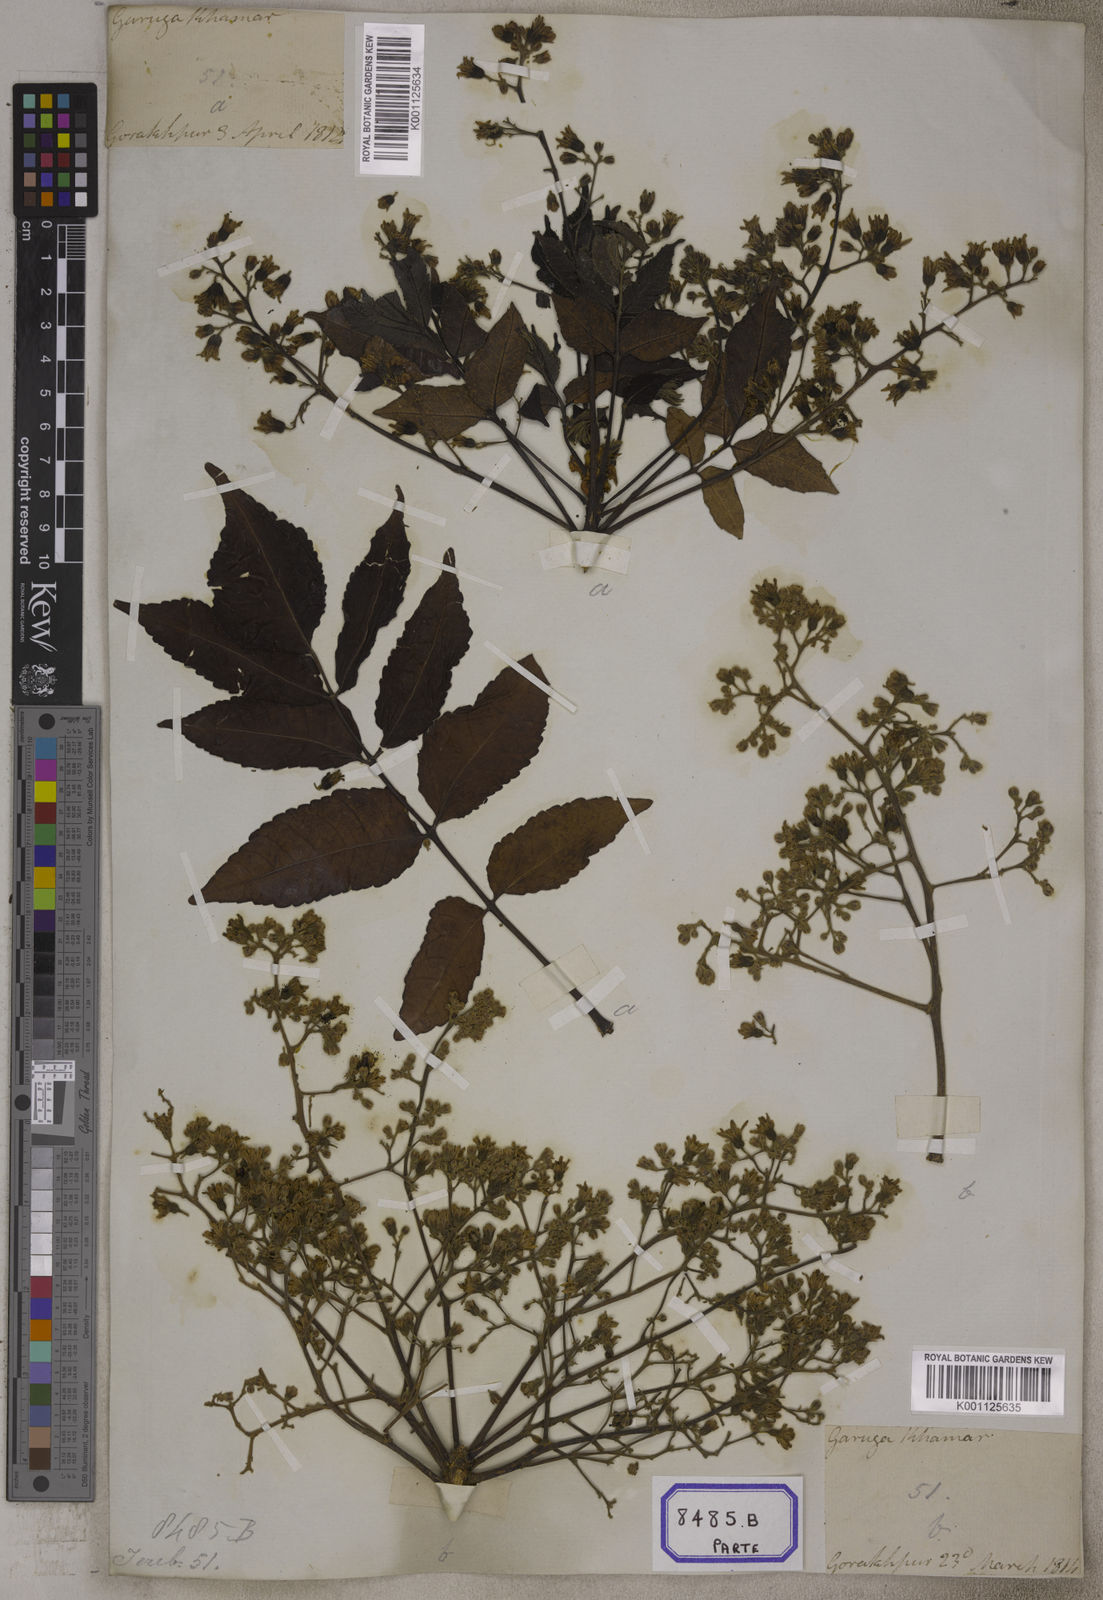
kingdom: Plantae
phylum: Tracheophyta
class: Magnoliopsida
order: Sapindales
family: Burseraceae
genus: Garuga
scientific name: Garuga pinnata
